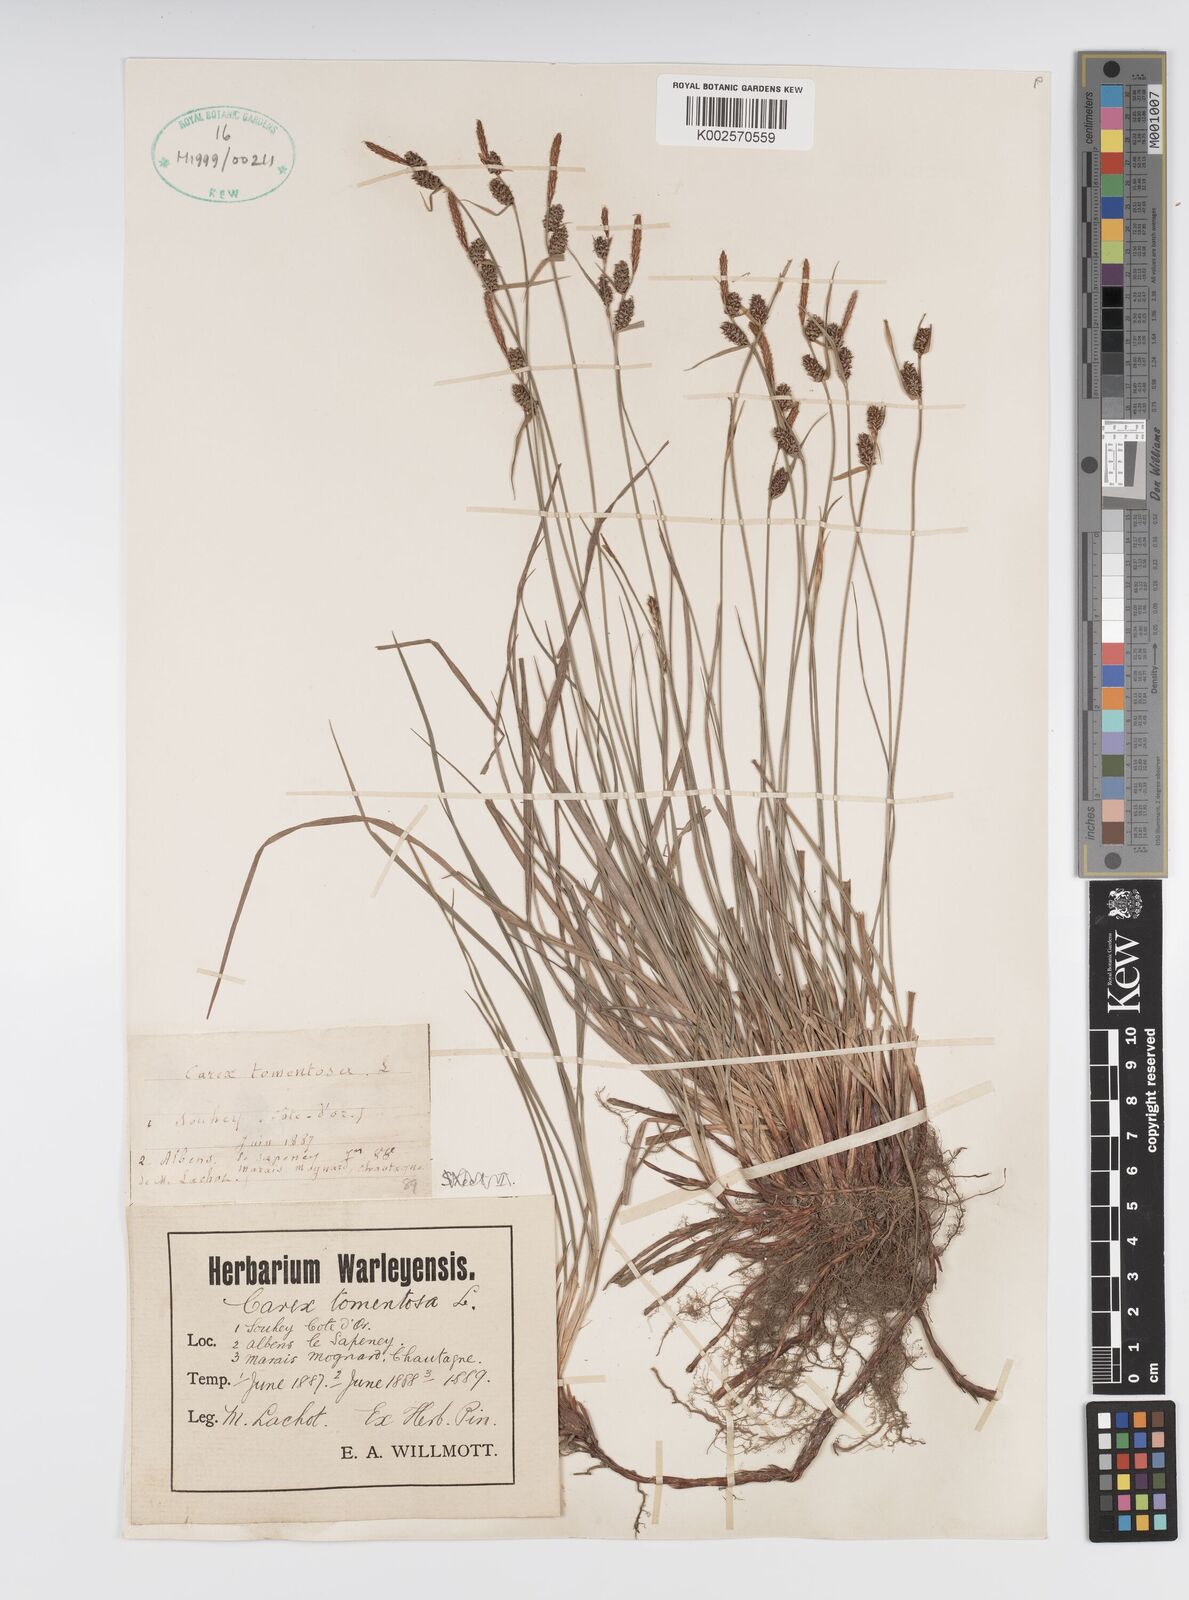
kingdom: Plantae
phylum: Tracheophyta
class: Liliopsida
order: Poales
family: Cyperaceae
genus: Carex
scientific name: Carex montana
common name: Soft-leaved sedge
